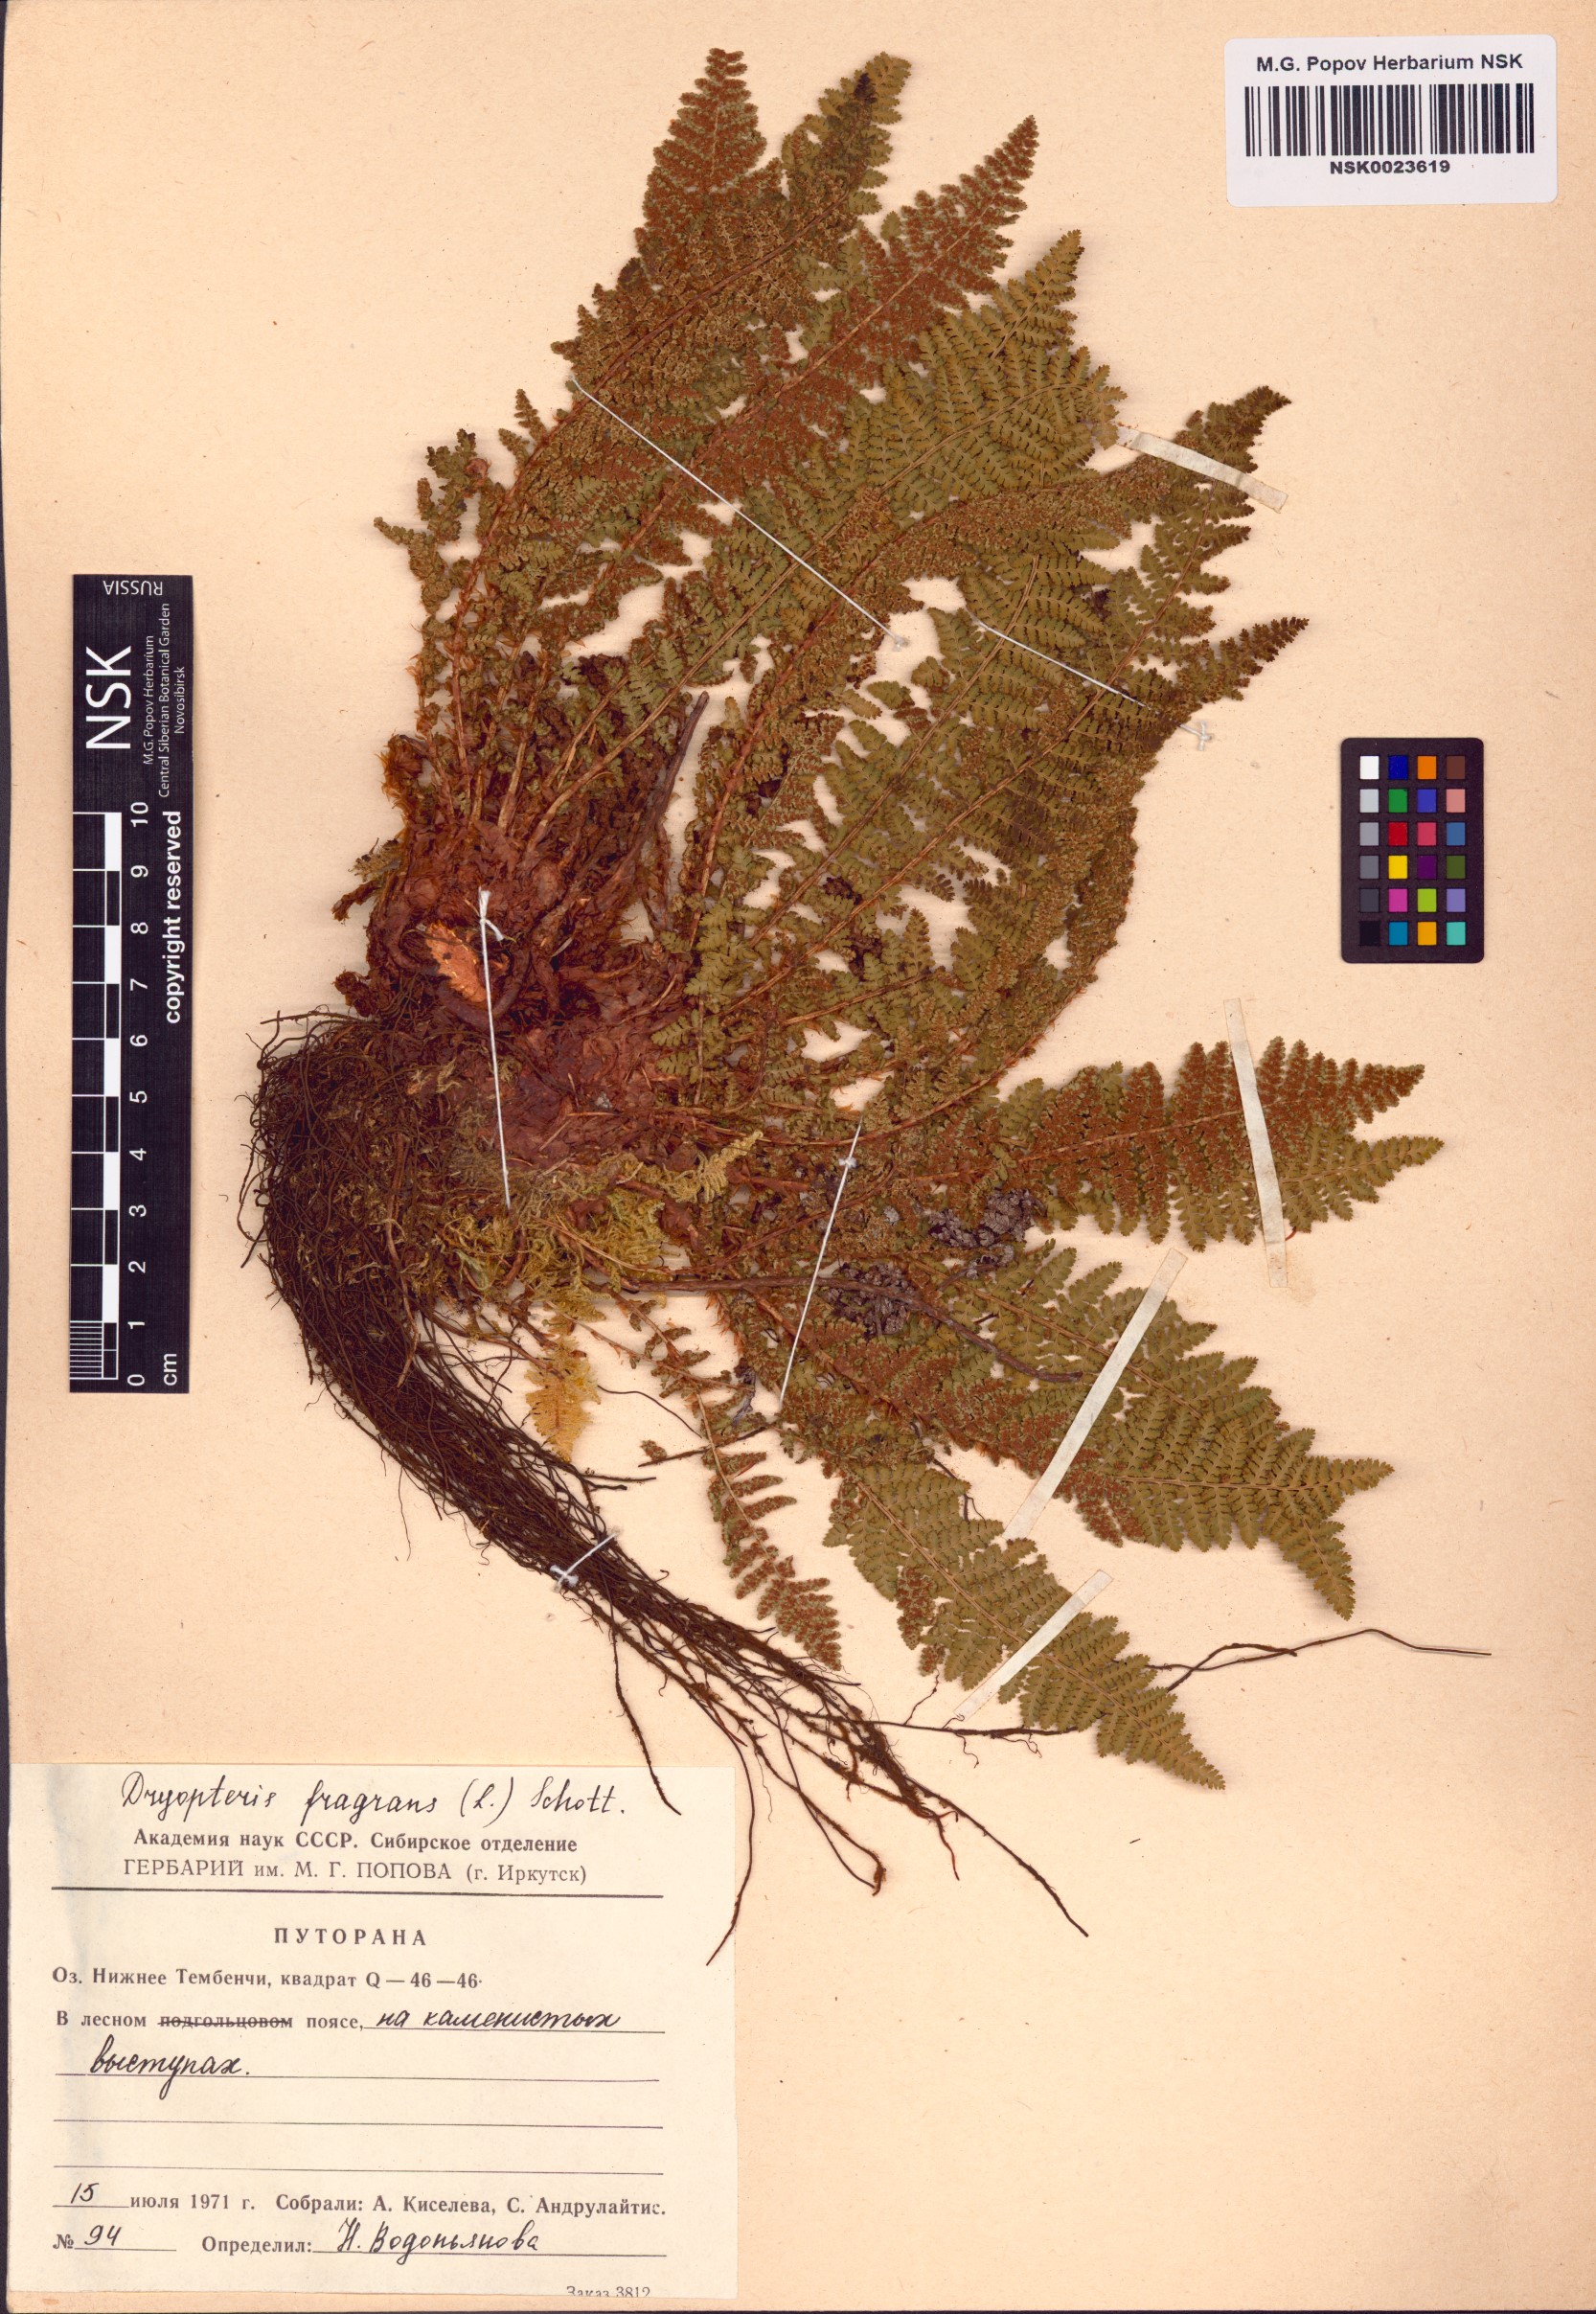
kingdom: Plantae
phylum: Tracheophyta
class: Polypodiopsida
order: Polypodiales
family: Dryopteridaceae
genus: Dryopteris
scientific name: Dryopteris fragrans
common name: Fragrant wood fern
